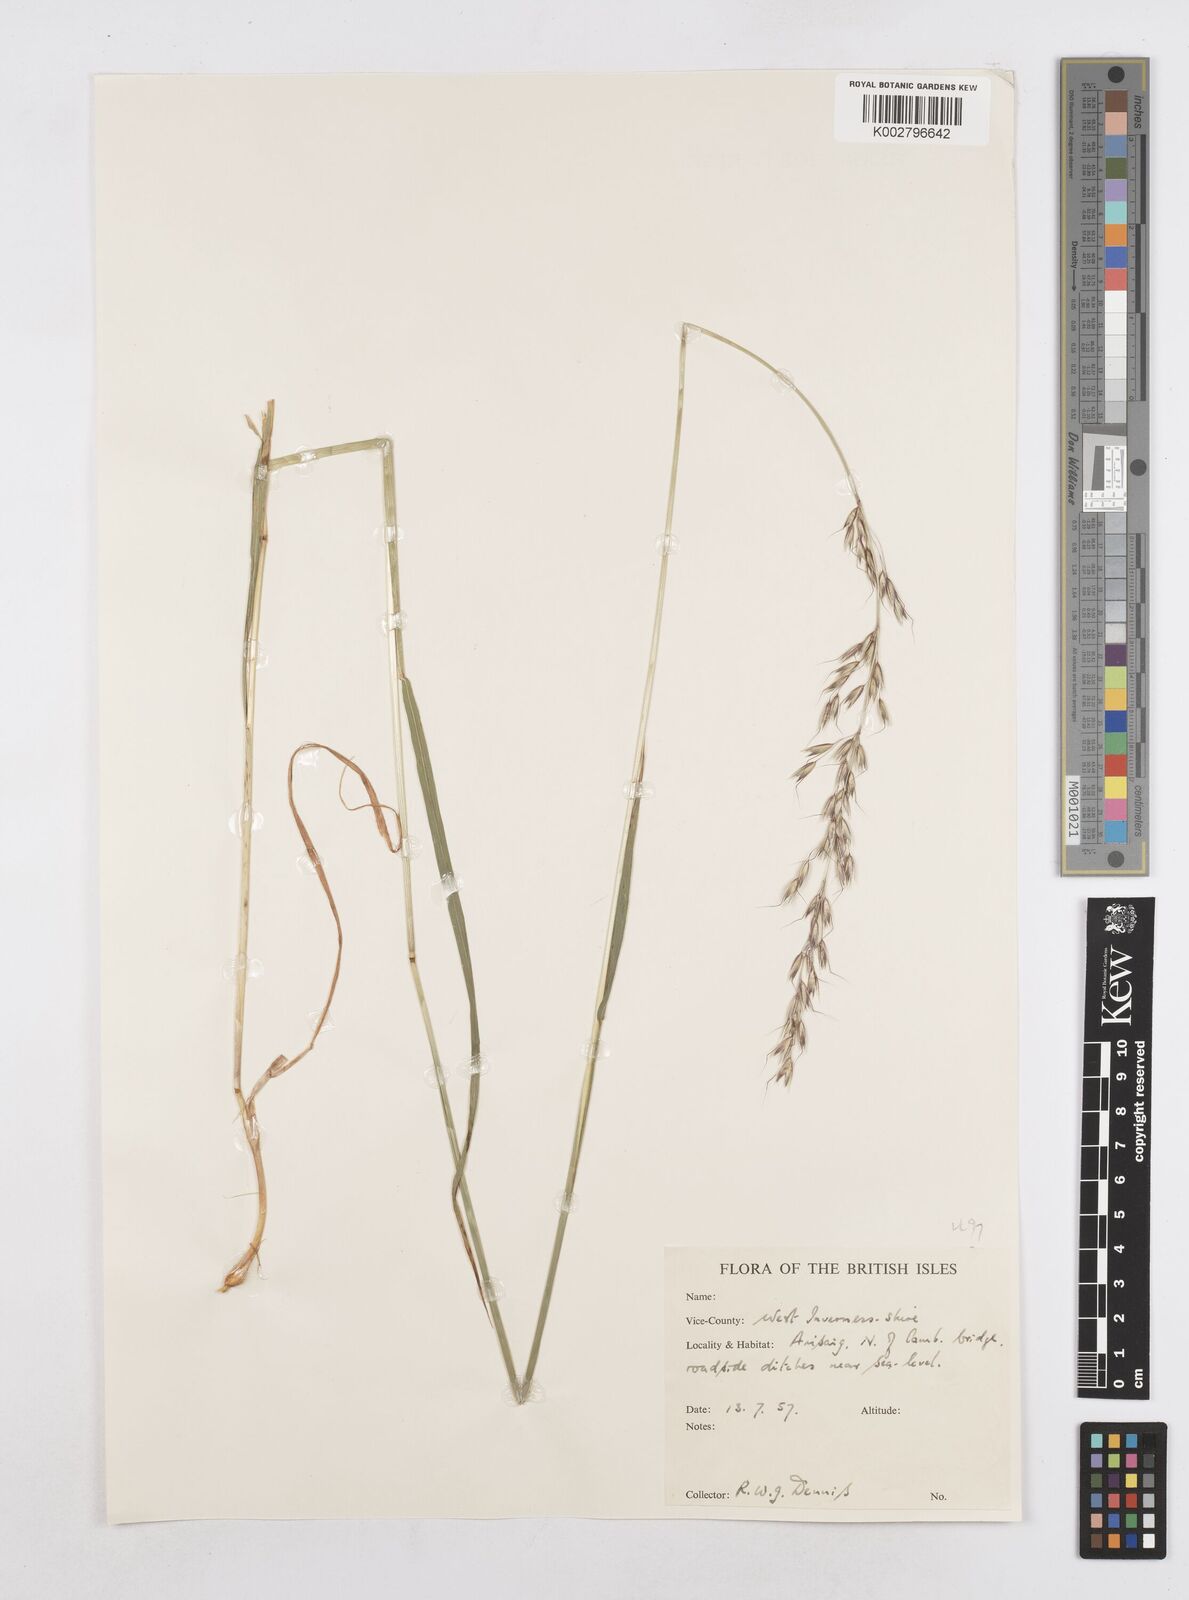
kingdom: Plantae
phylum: Tracheophyta
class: Liliopsida
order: Poales
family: Poaceae
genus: Arrhenatherum
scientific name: Arrhenatherum elatius
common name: Tall oatgrass
